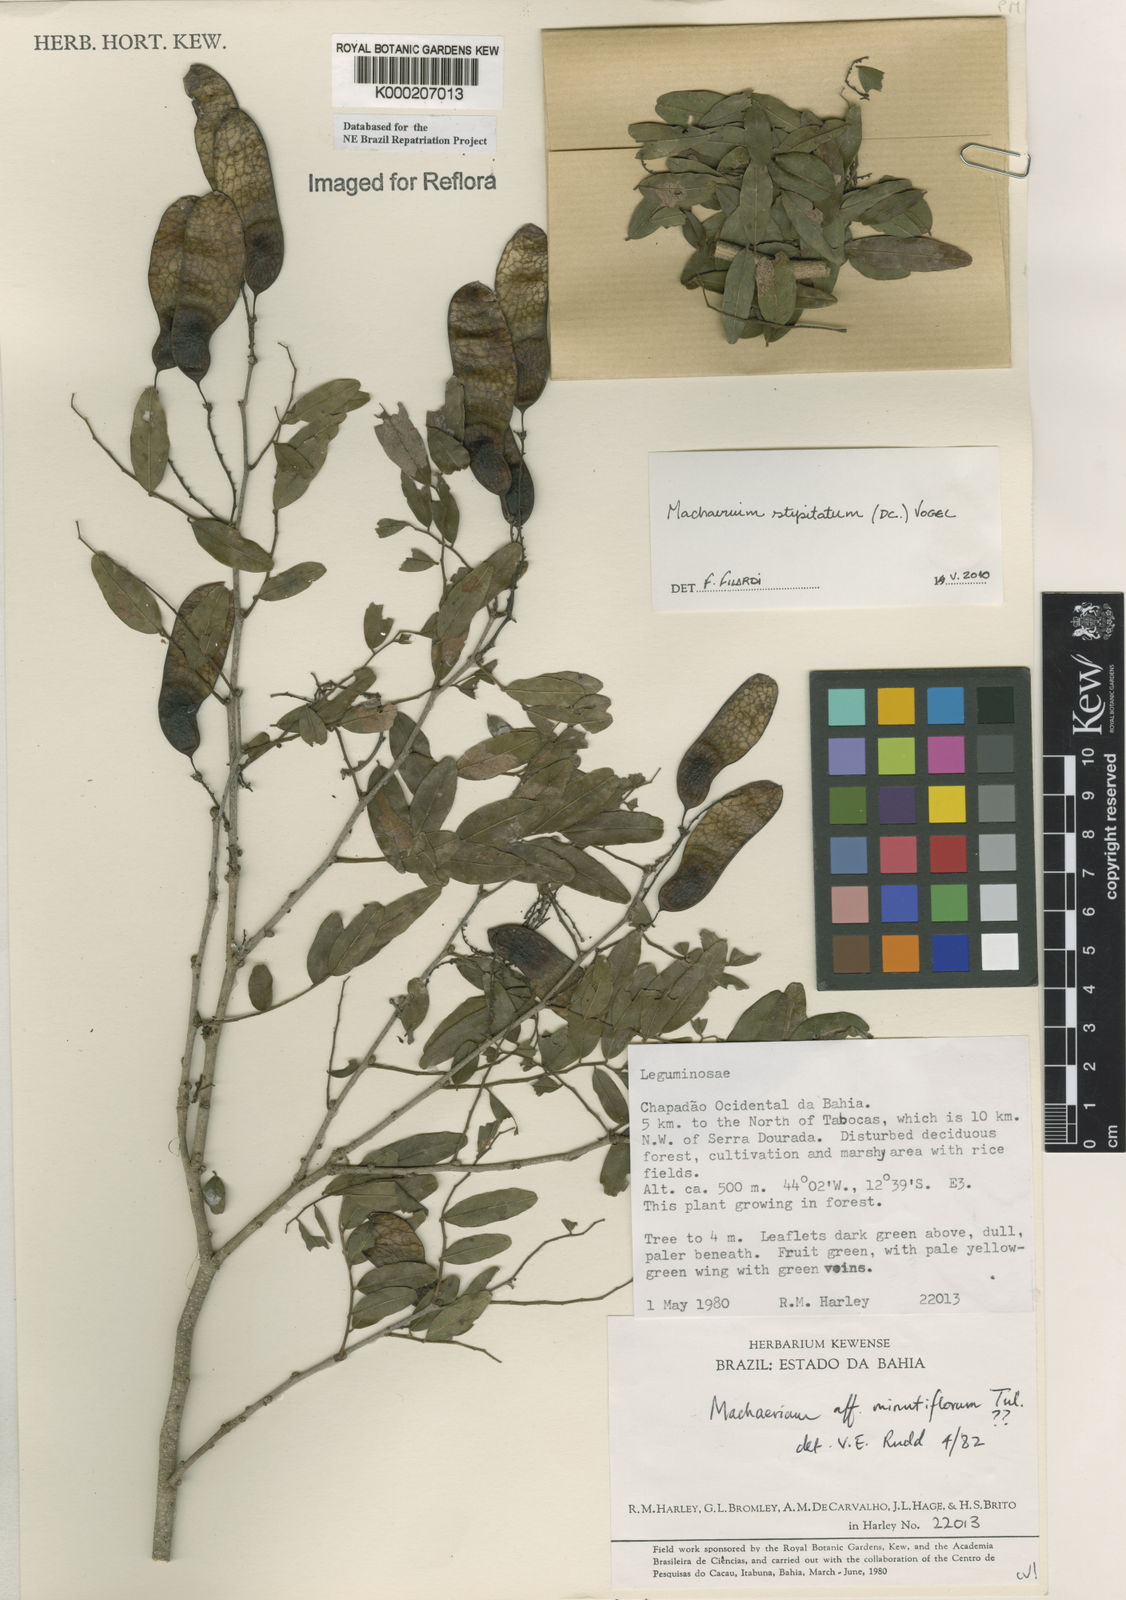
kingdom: Plantae
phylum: Tracheophyta
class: Magnoliopsida
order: Fabales
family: Fabaceae
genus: Machaerium
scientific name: Machaerium stipitatum
